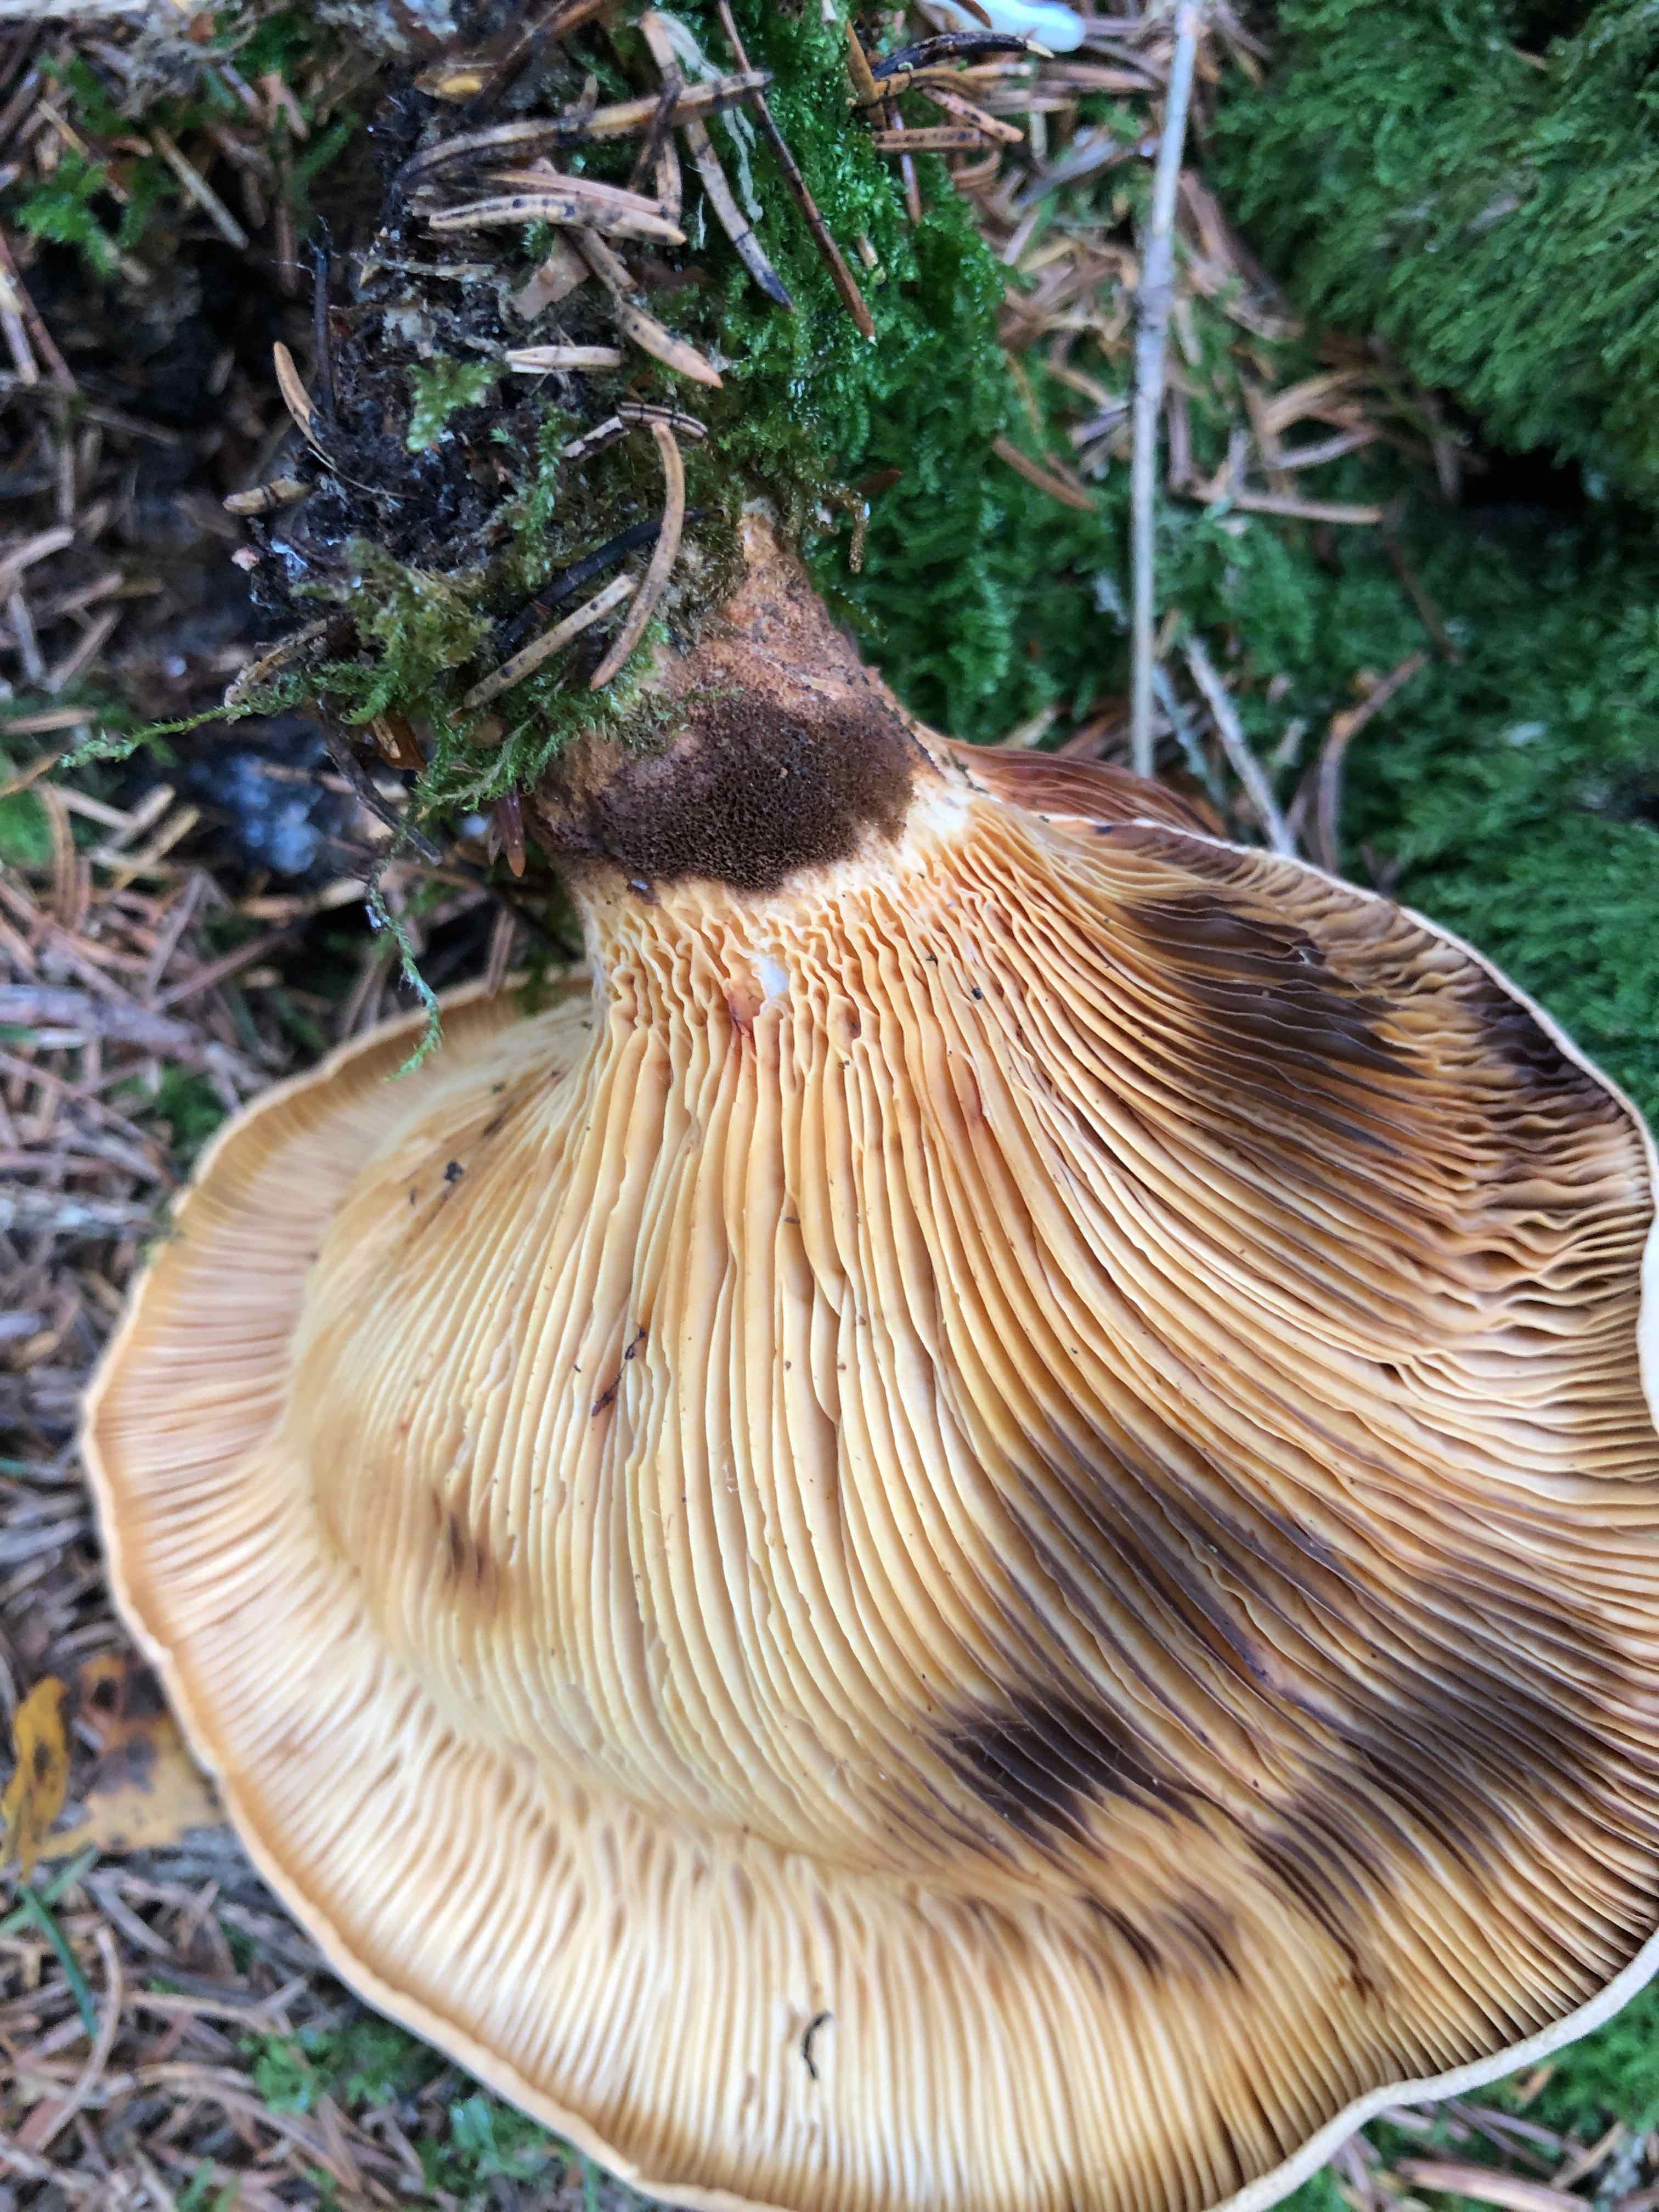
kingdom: Fungi
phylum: Basidiomycota
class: Agaricomycetes
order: Boletales
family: Tapinellaceae
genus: Tapinella
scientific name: Tapinella atrotomentosa
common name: sortfiltet viftesvamp
